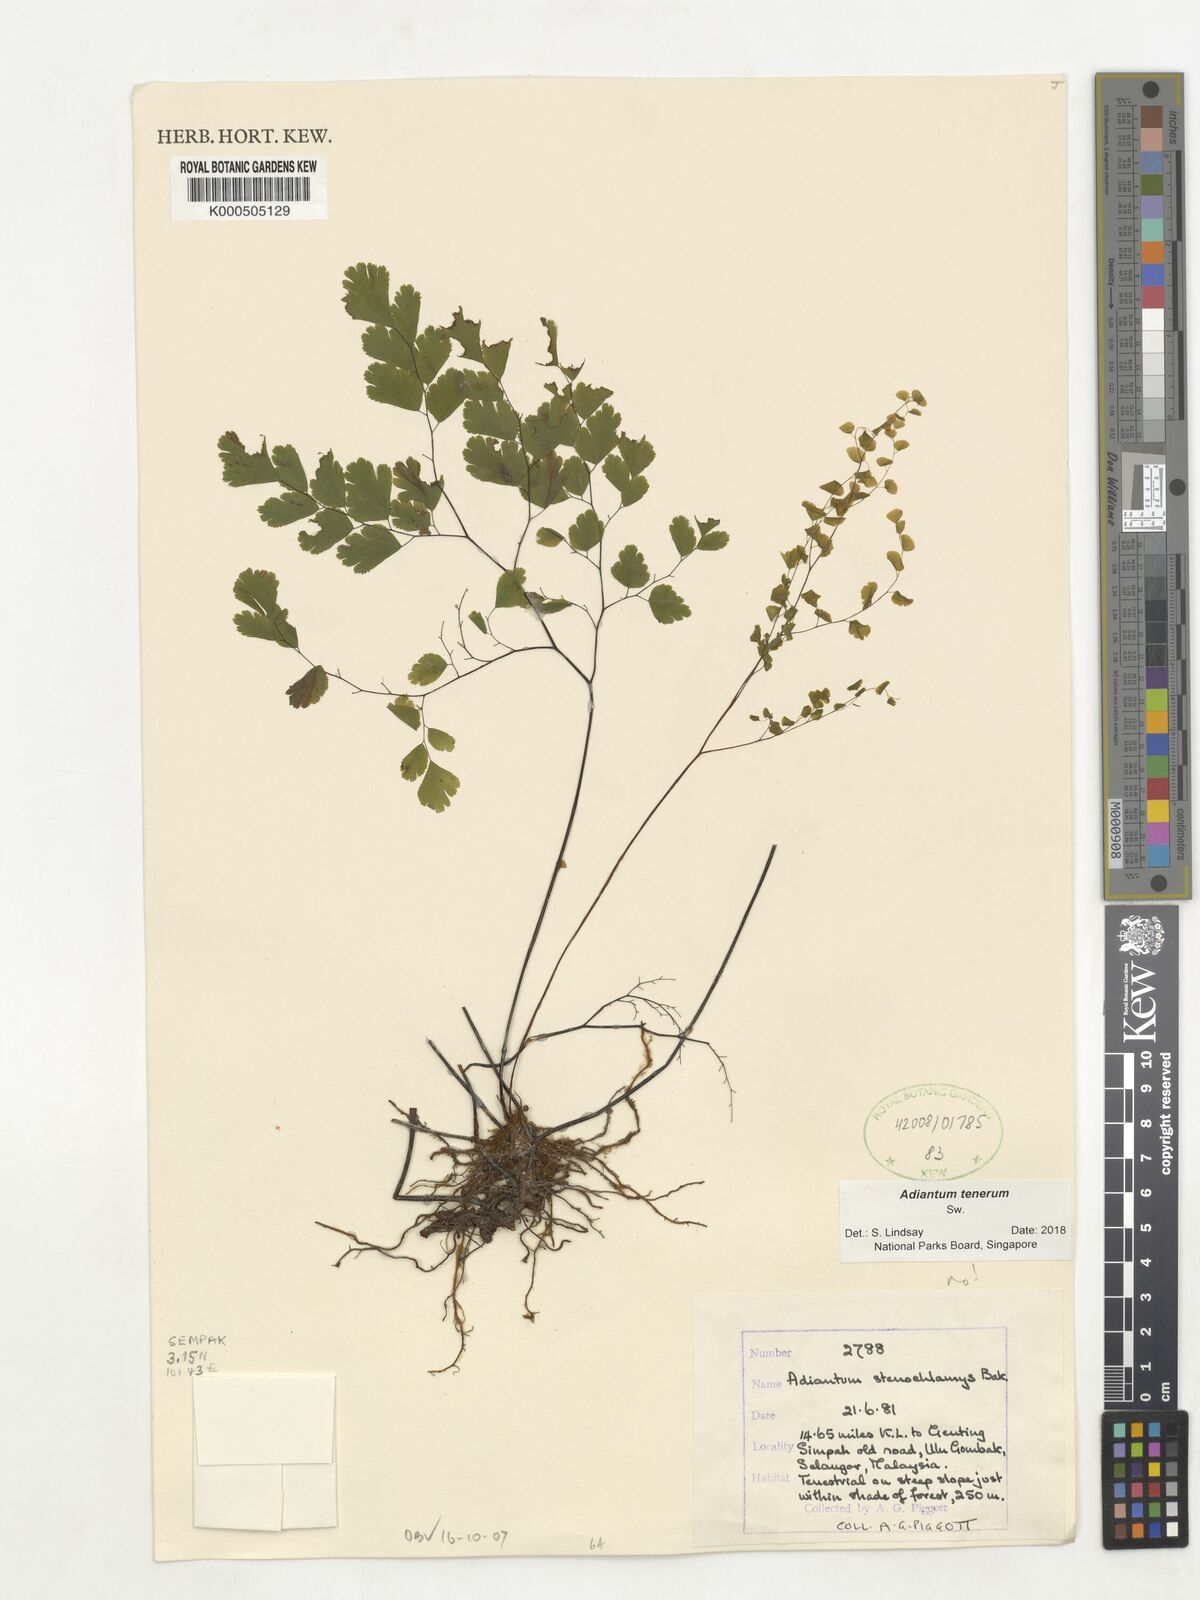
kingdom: Plantae
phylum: Tracheophyta
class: Polypodiopsida
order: Polypodiales
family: Pteridaceae
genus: Adiantum
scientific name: Adiantum tenerum
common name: Fan maidenhair
